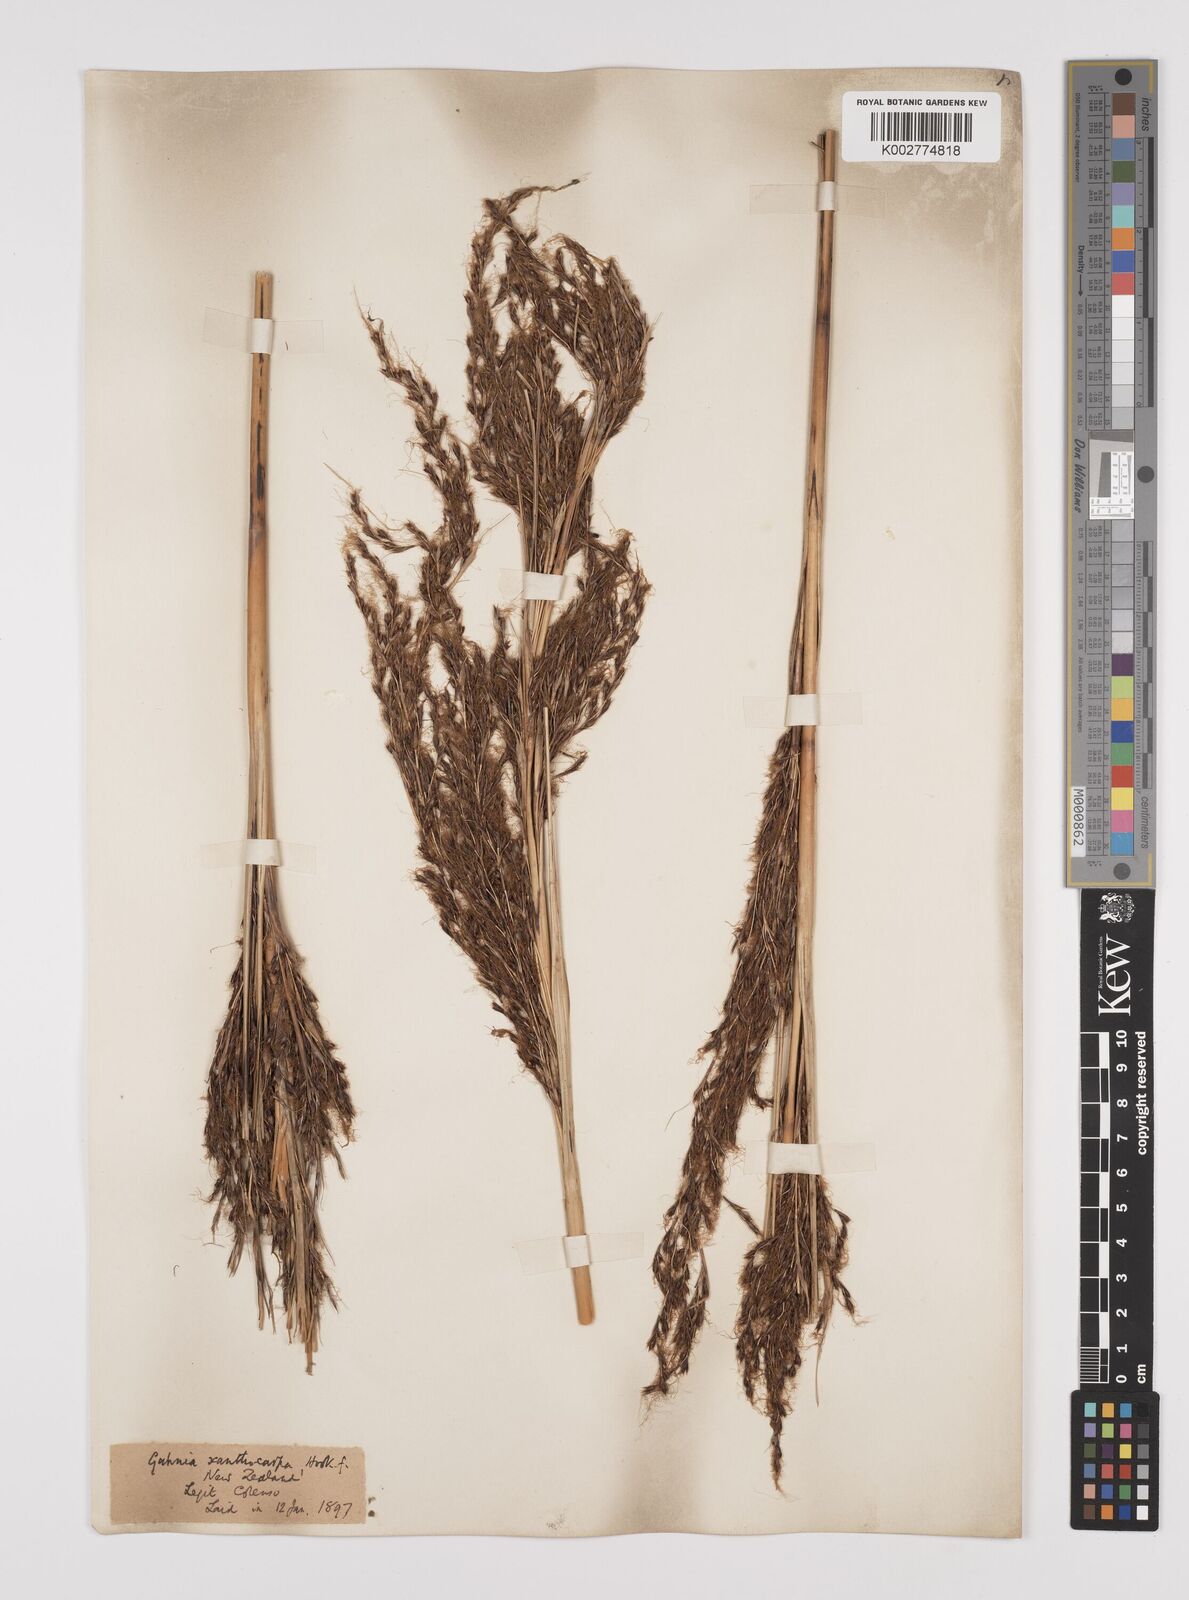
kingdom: Plantae
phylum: Tracheophyta
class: Liliopsida
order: Poales
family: Cyperaceae
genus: Gahnia
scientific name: Gahnia xanthocarpa
